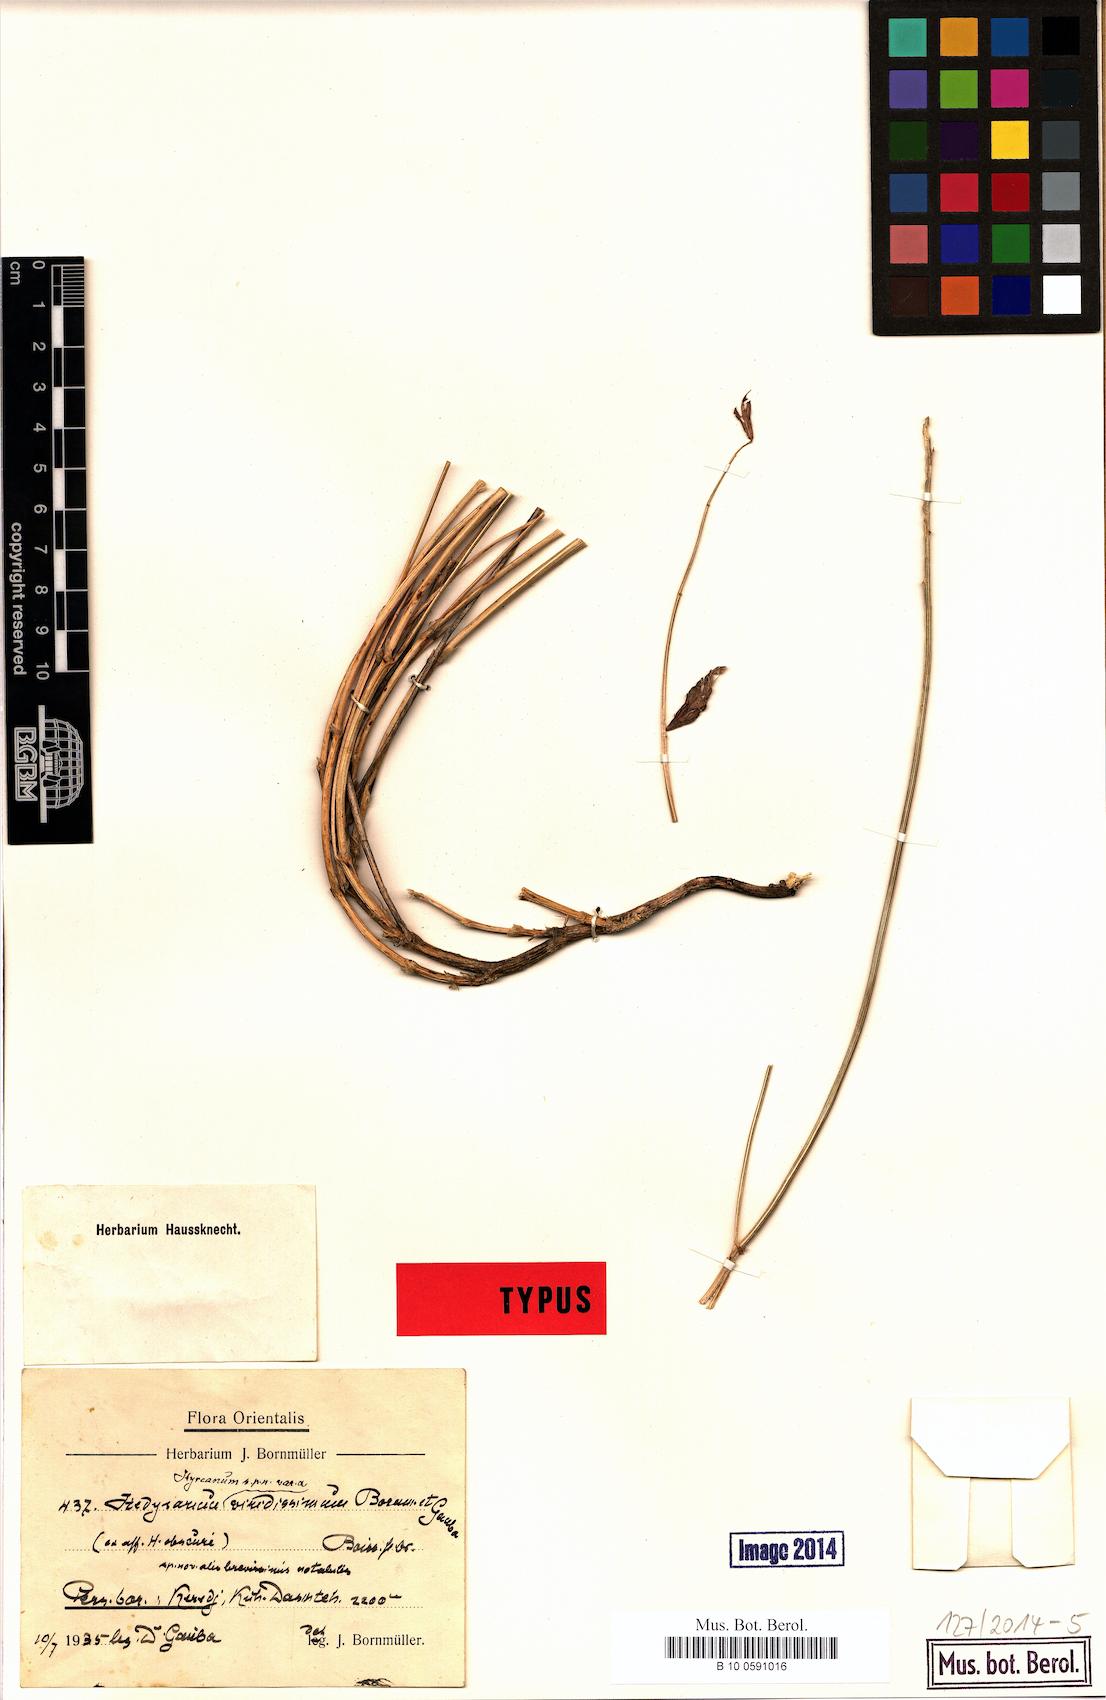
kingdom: Plantae
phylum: Tracheophyta
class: Magnoliopsida
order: Fabales
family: Fabaceae
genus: Hedysarum
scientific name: Hedysarum
